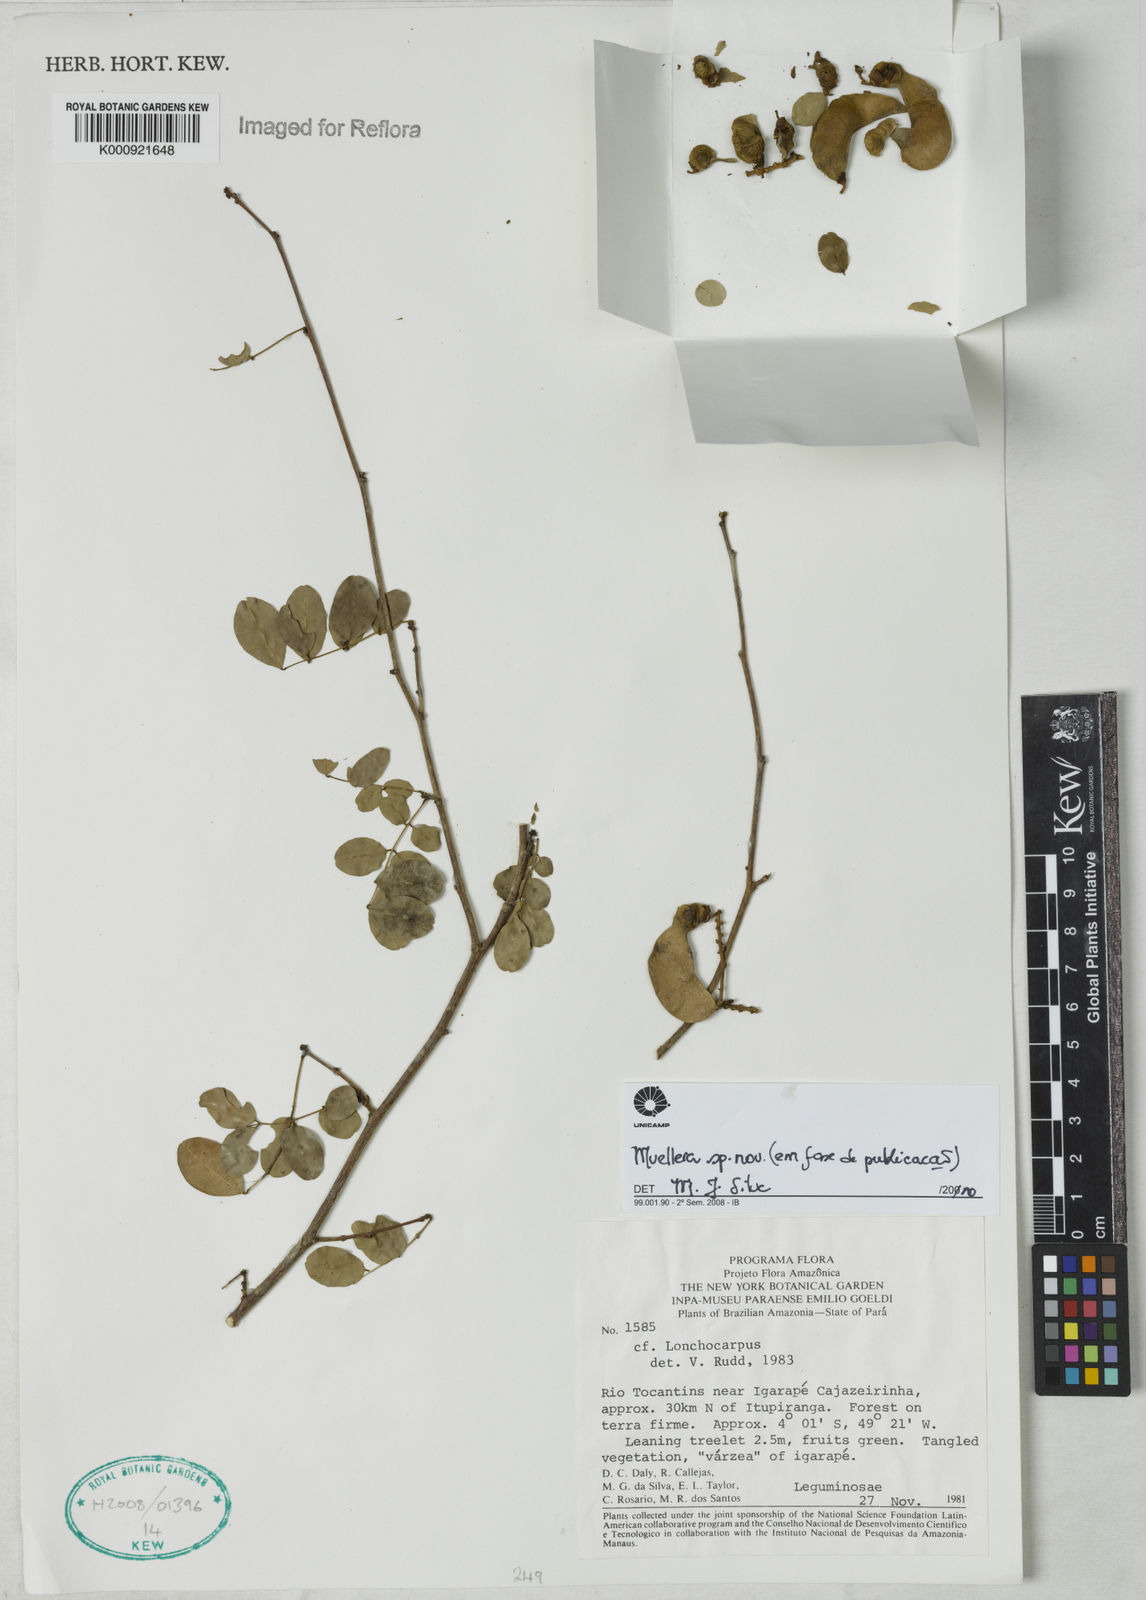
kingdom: Plantae
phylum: Tracheophyta
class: Magnoliopsida
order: Fabales
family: Fabaceae
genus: Muellera
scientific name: Muellera
